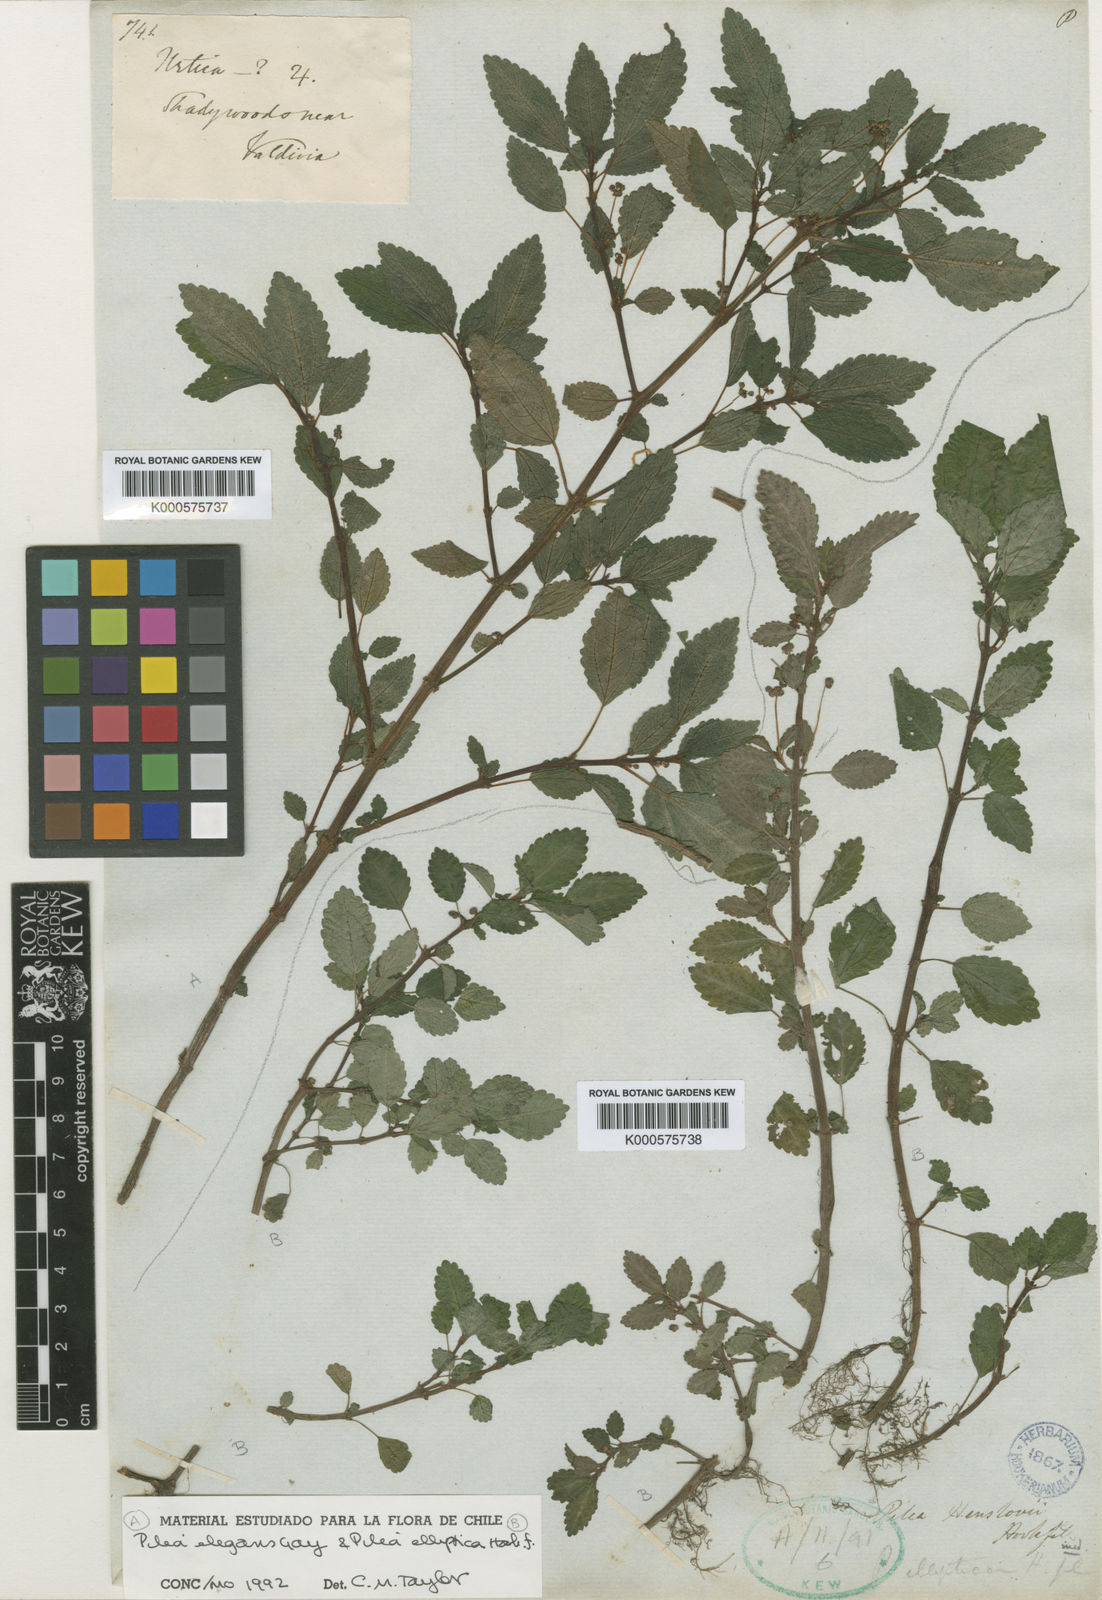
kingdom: Plantae
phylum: Tracheophyta
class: Magnoliopsida
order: Rosales
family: Urticaceae
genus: Pilea
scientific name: Pilea elegans
